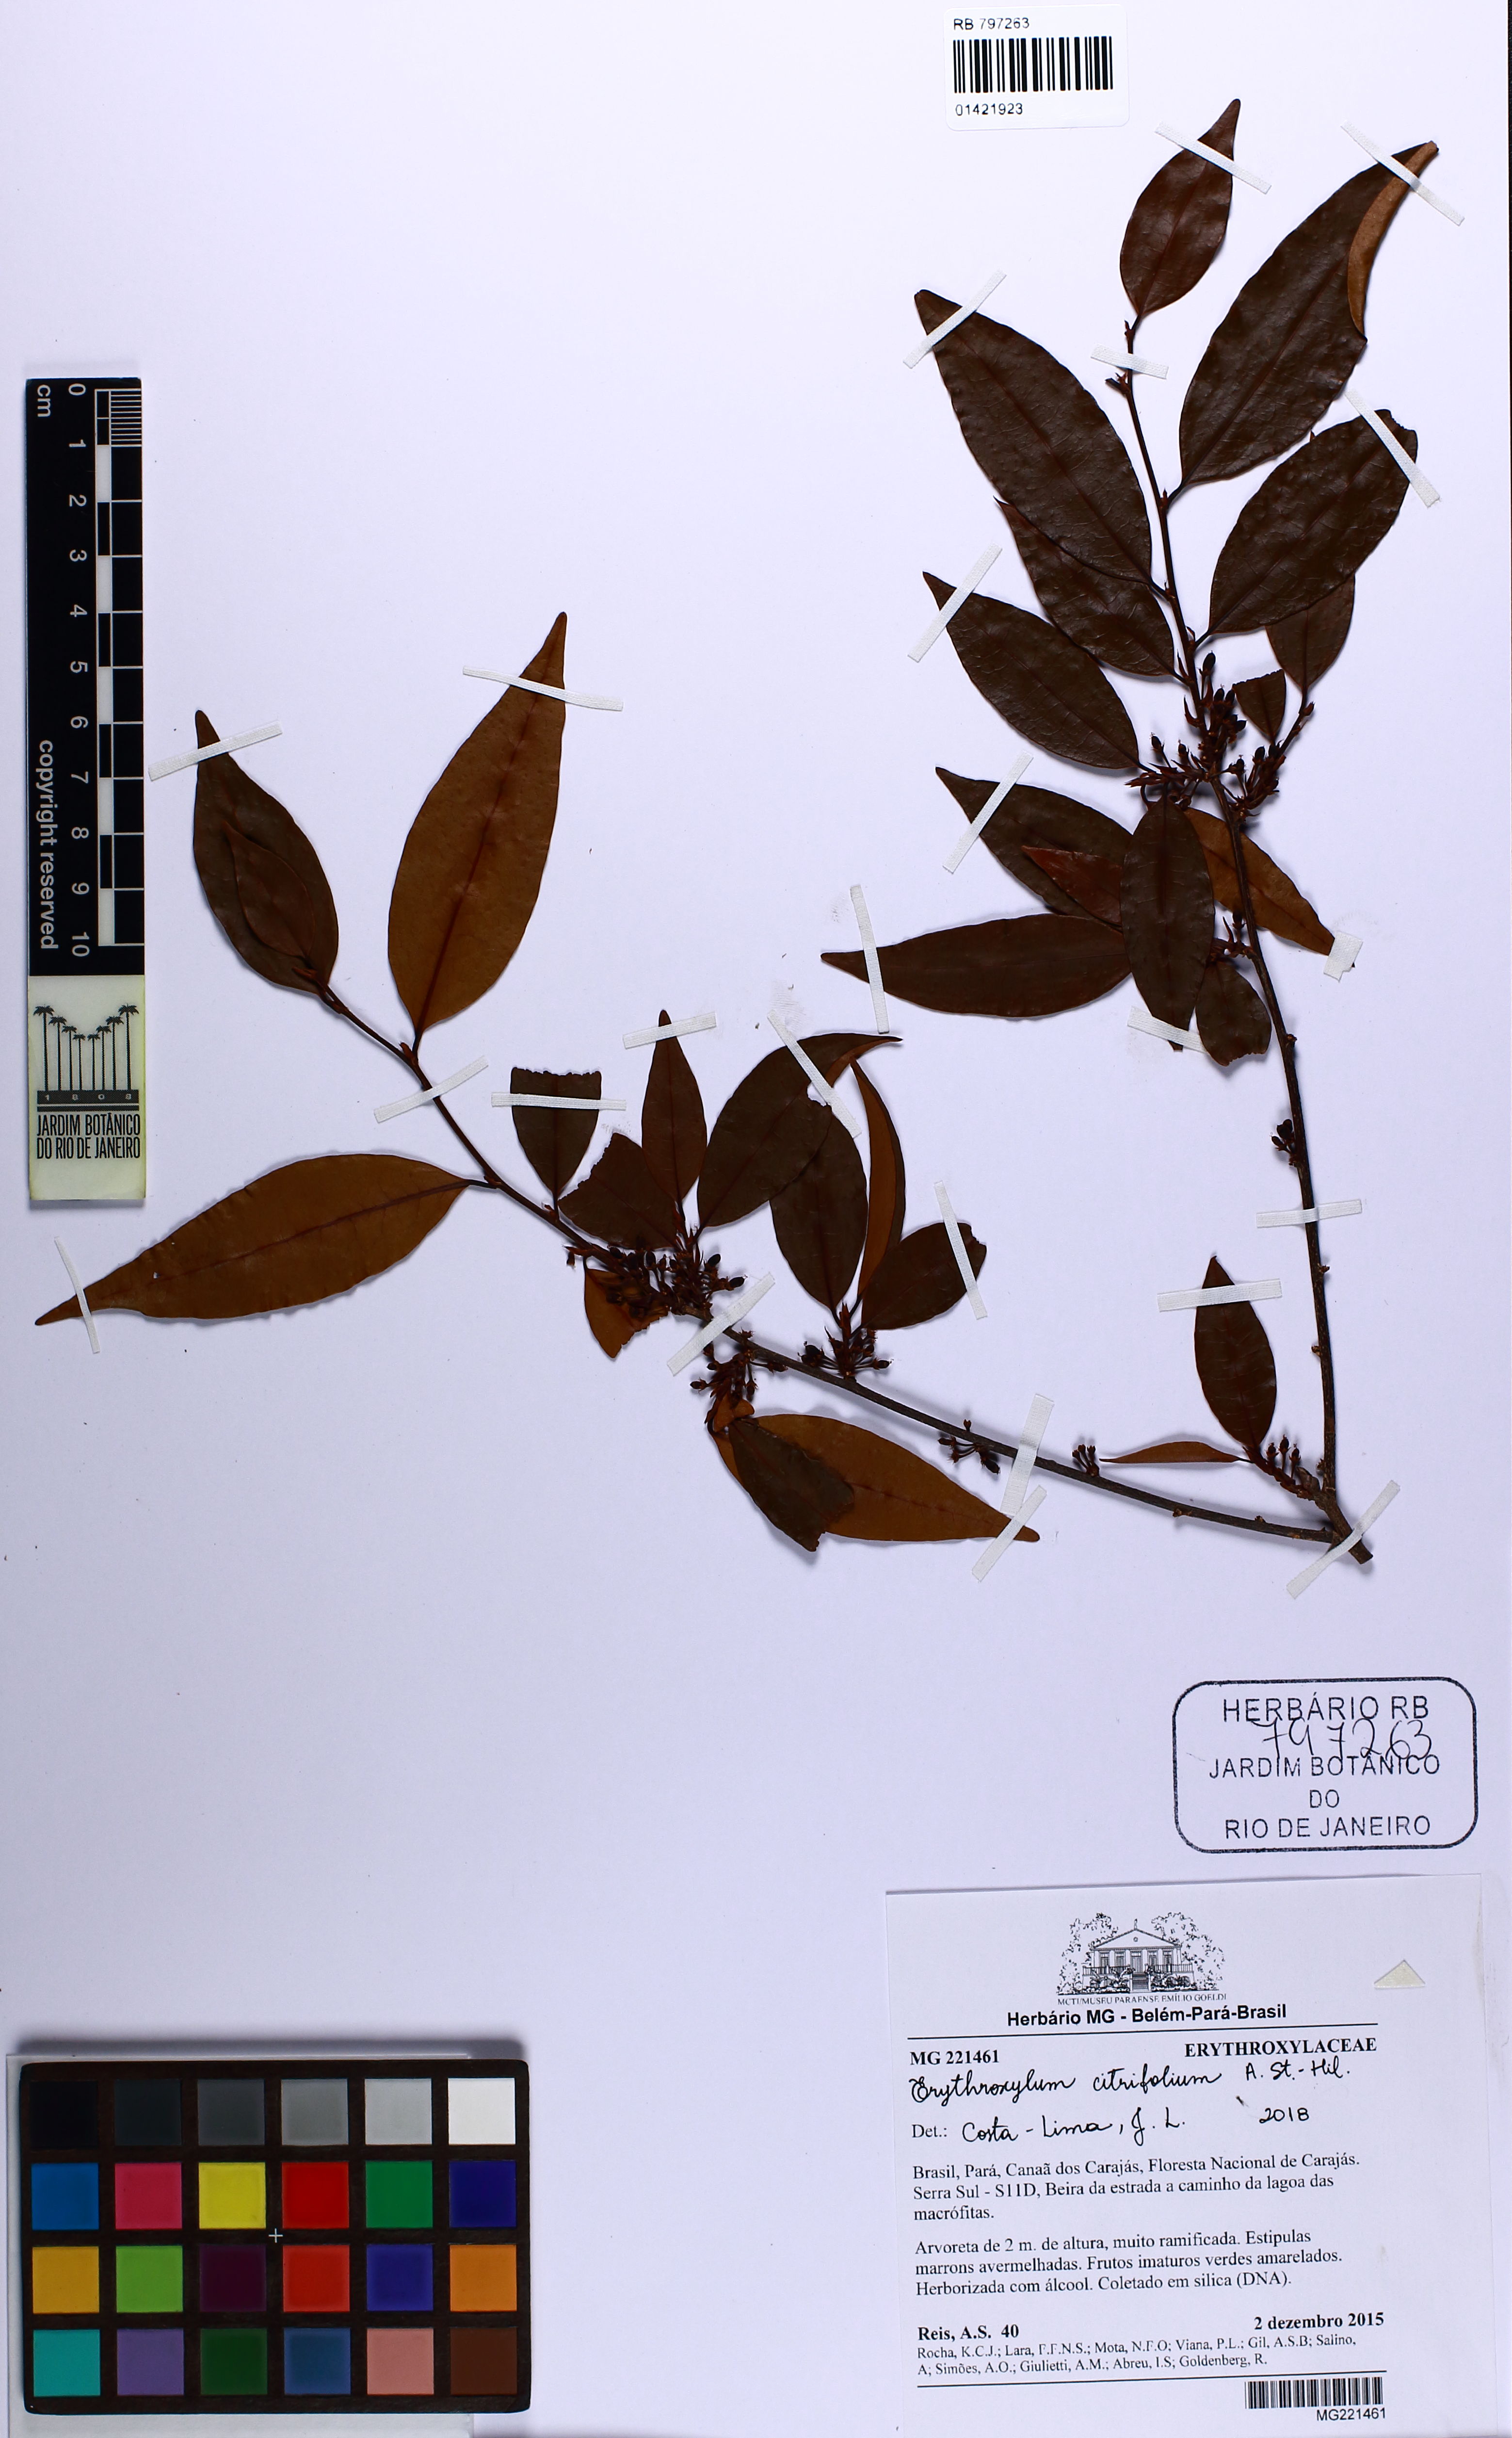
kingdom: Plantae
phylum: Tracheophyta
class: Magnoliopsida
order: Malpighiales
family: Erythroxylaceae
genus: Erythroxylum
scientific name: Erythroxylum citrifolium
